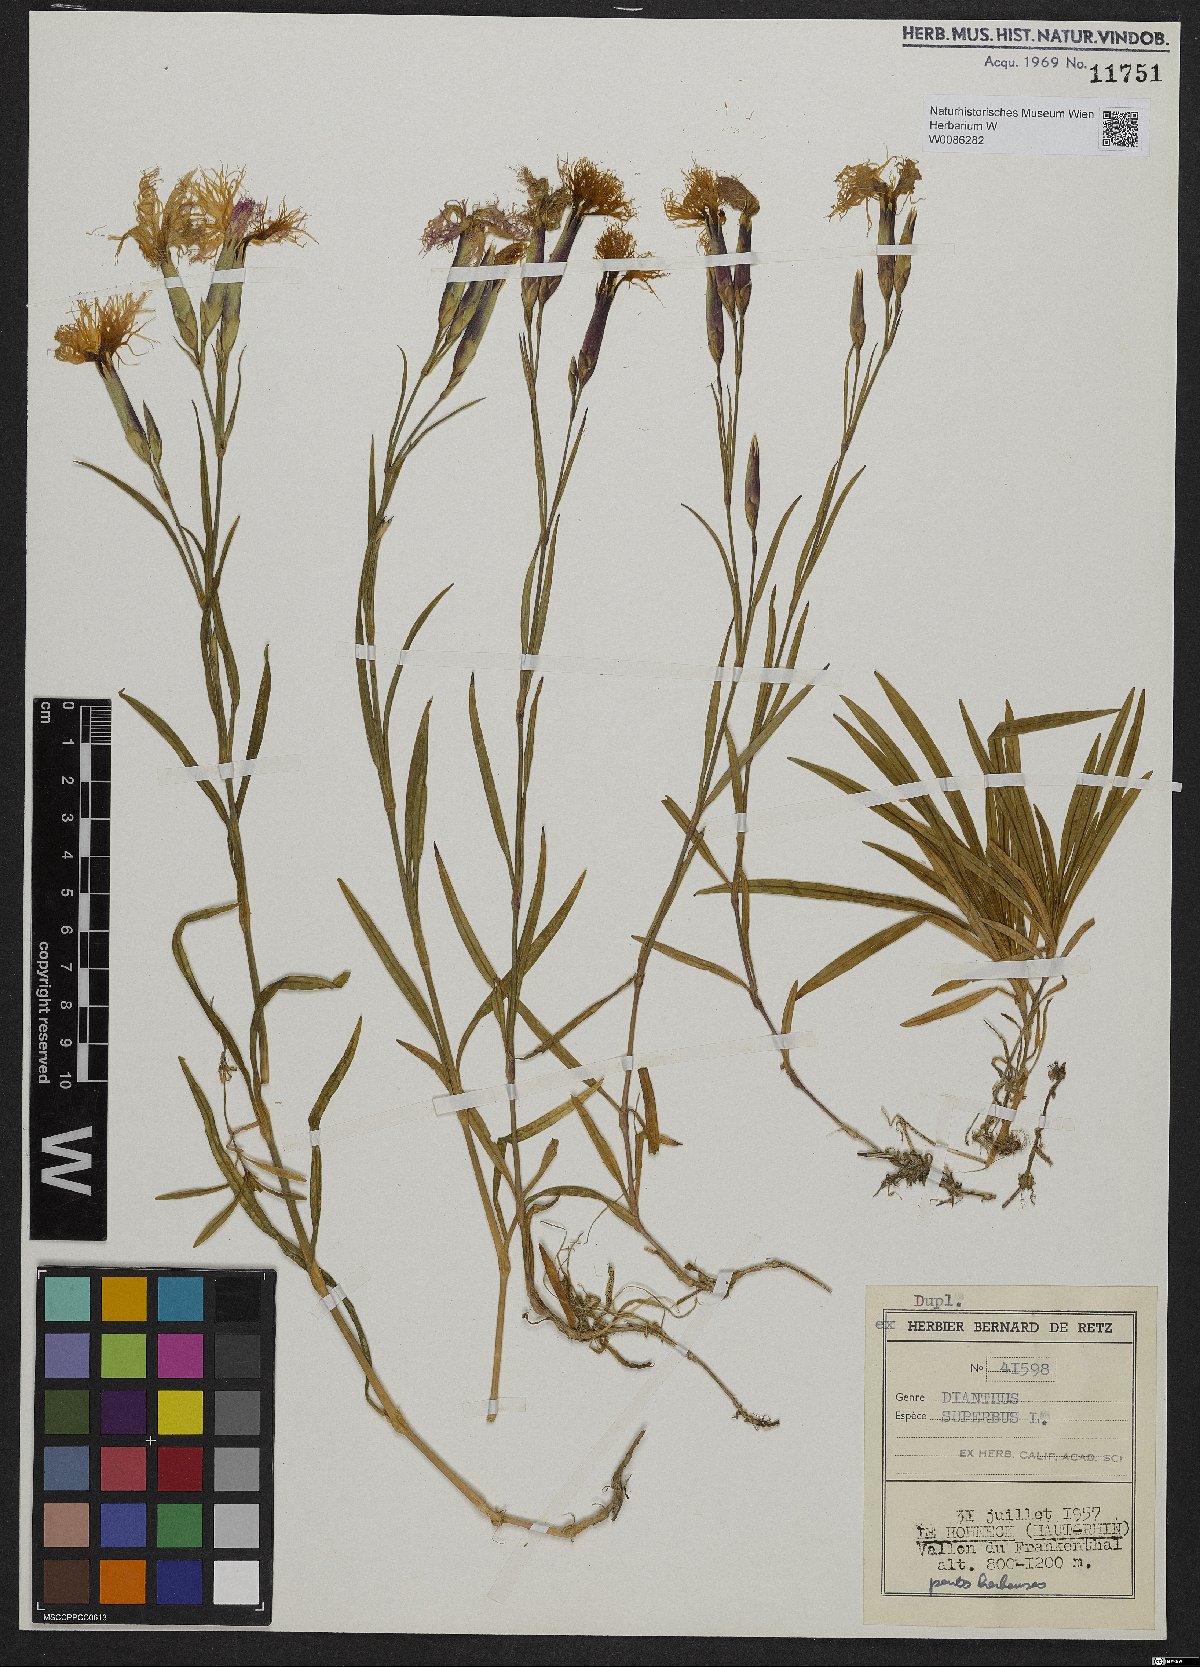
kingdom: Plantae
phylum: Tracheophyta
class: Magnoliopsida
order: Caryophyllales
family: Caryophyllaceae
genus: Dianthus
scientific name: Dianthus superbus
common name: Fringed pink
